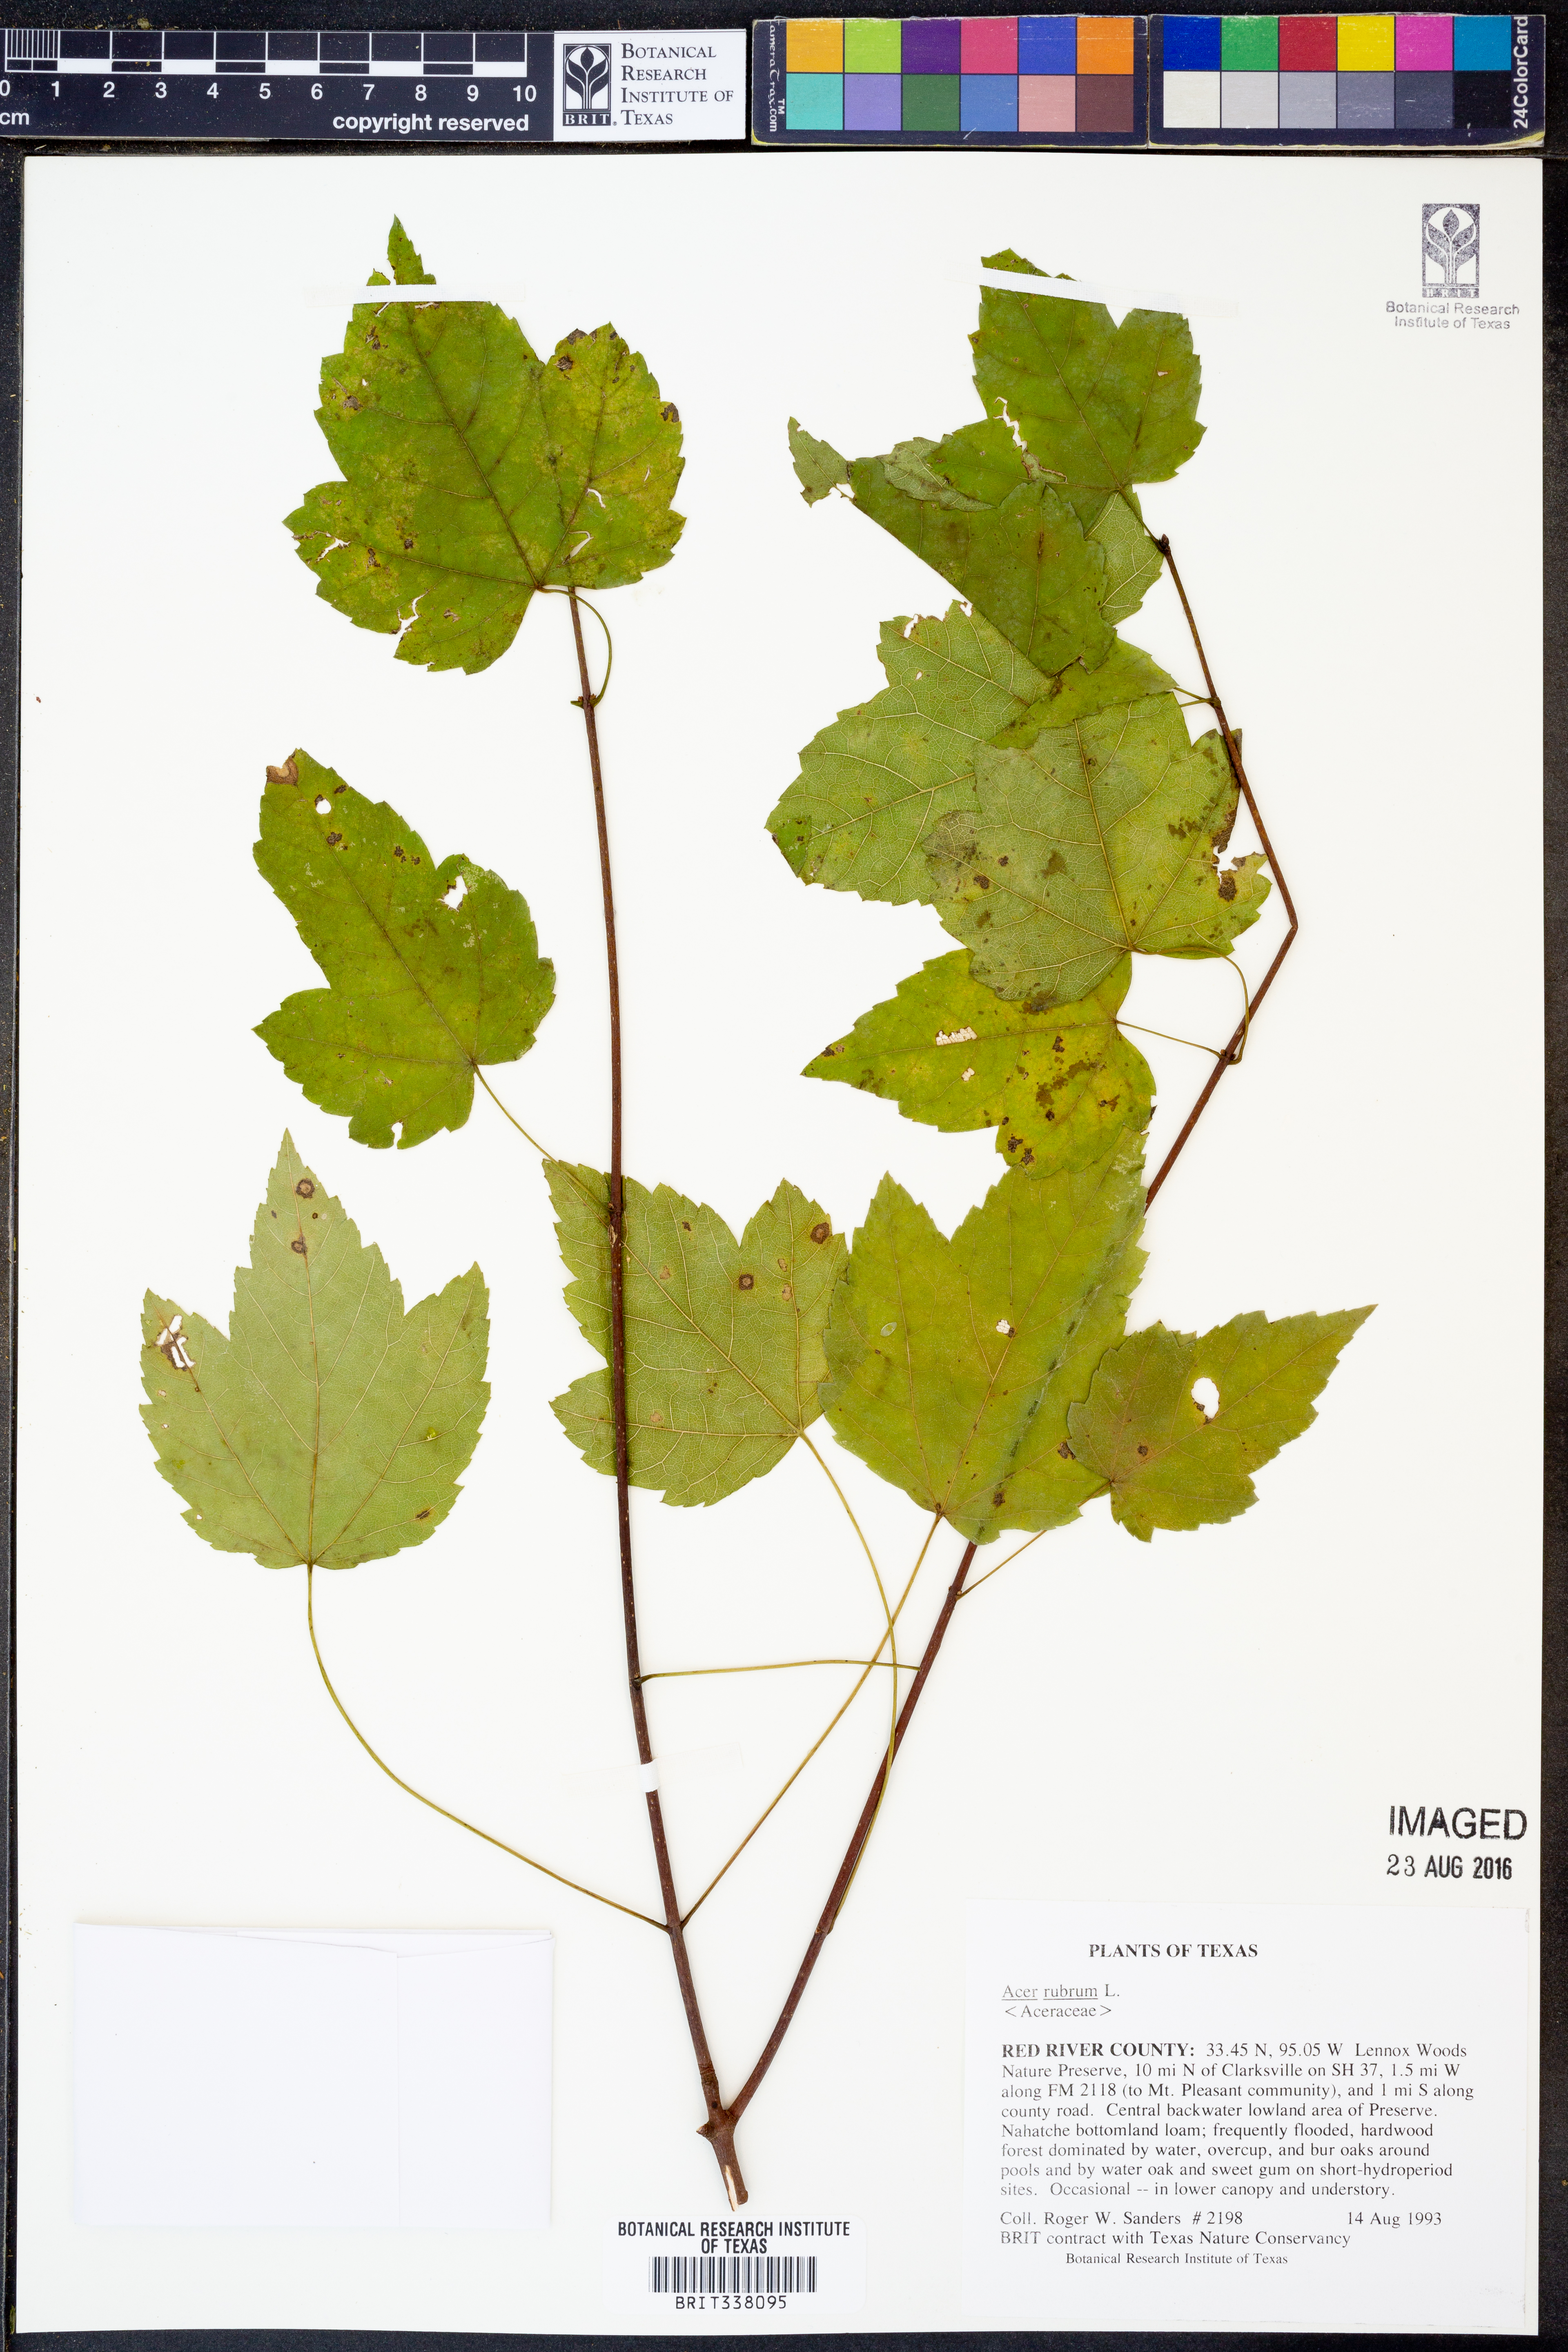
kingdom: Plantae
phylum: Tracheophyta
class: Magnoliopsida
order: Sapindales
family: Sapindaceae
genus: Acer
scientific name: Acer rubrum
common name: Red maple
